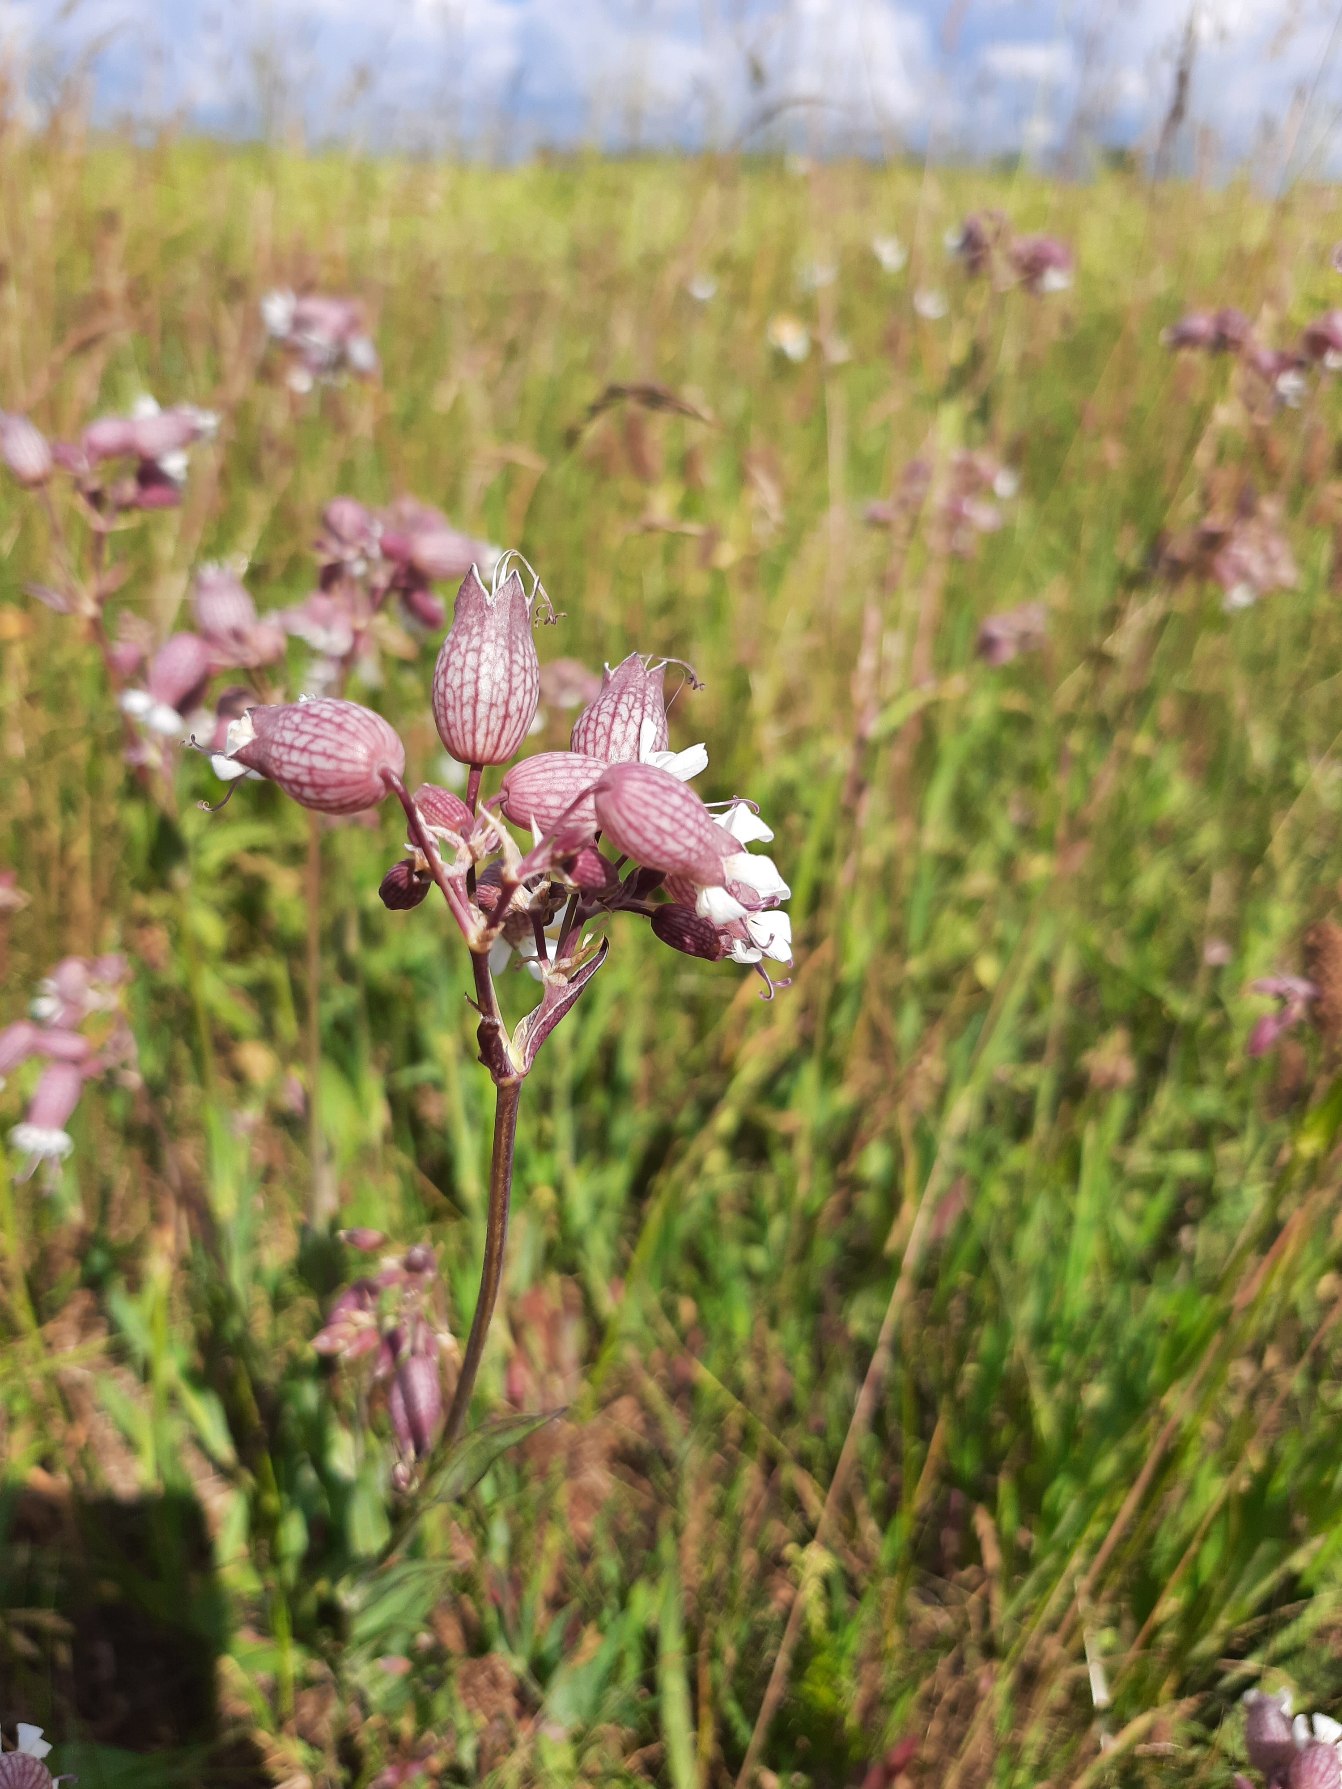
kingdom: Plantae
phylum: Tracheophyta
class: Magnoliopsida
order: Caryophyllales
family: Caryophyllaceae
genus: Silene
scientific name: Silene vulgaris
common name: Blæresmælde
